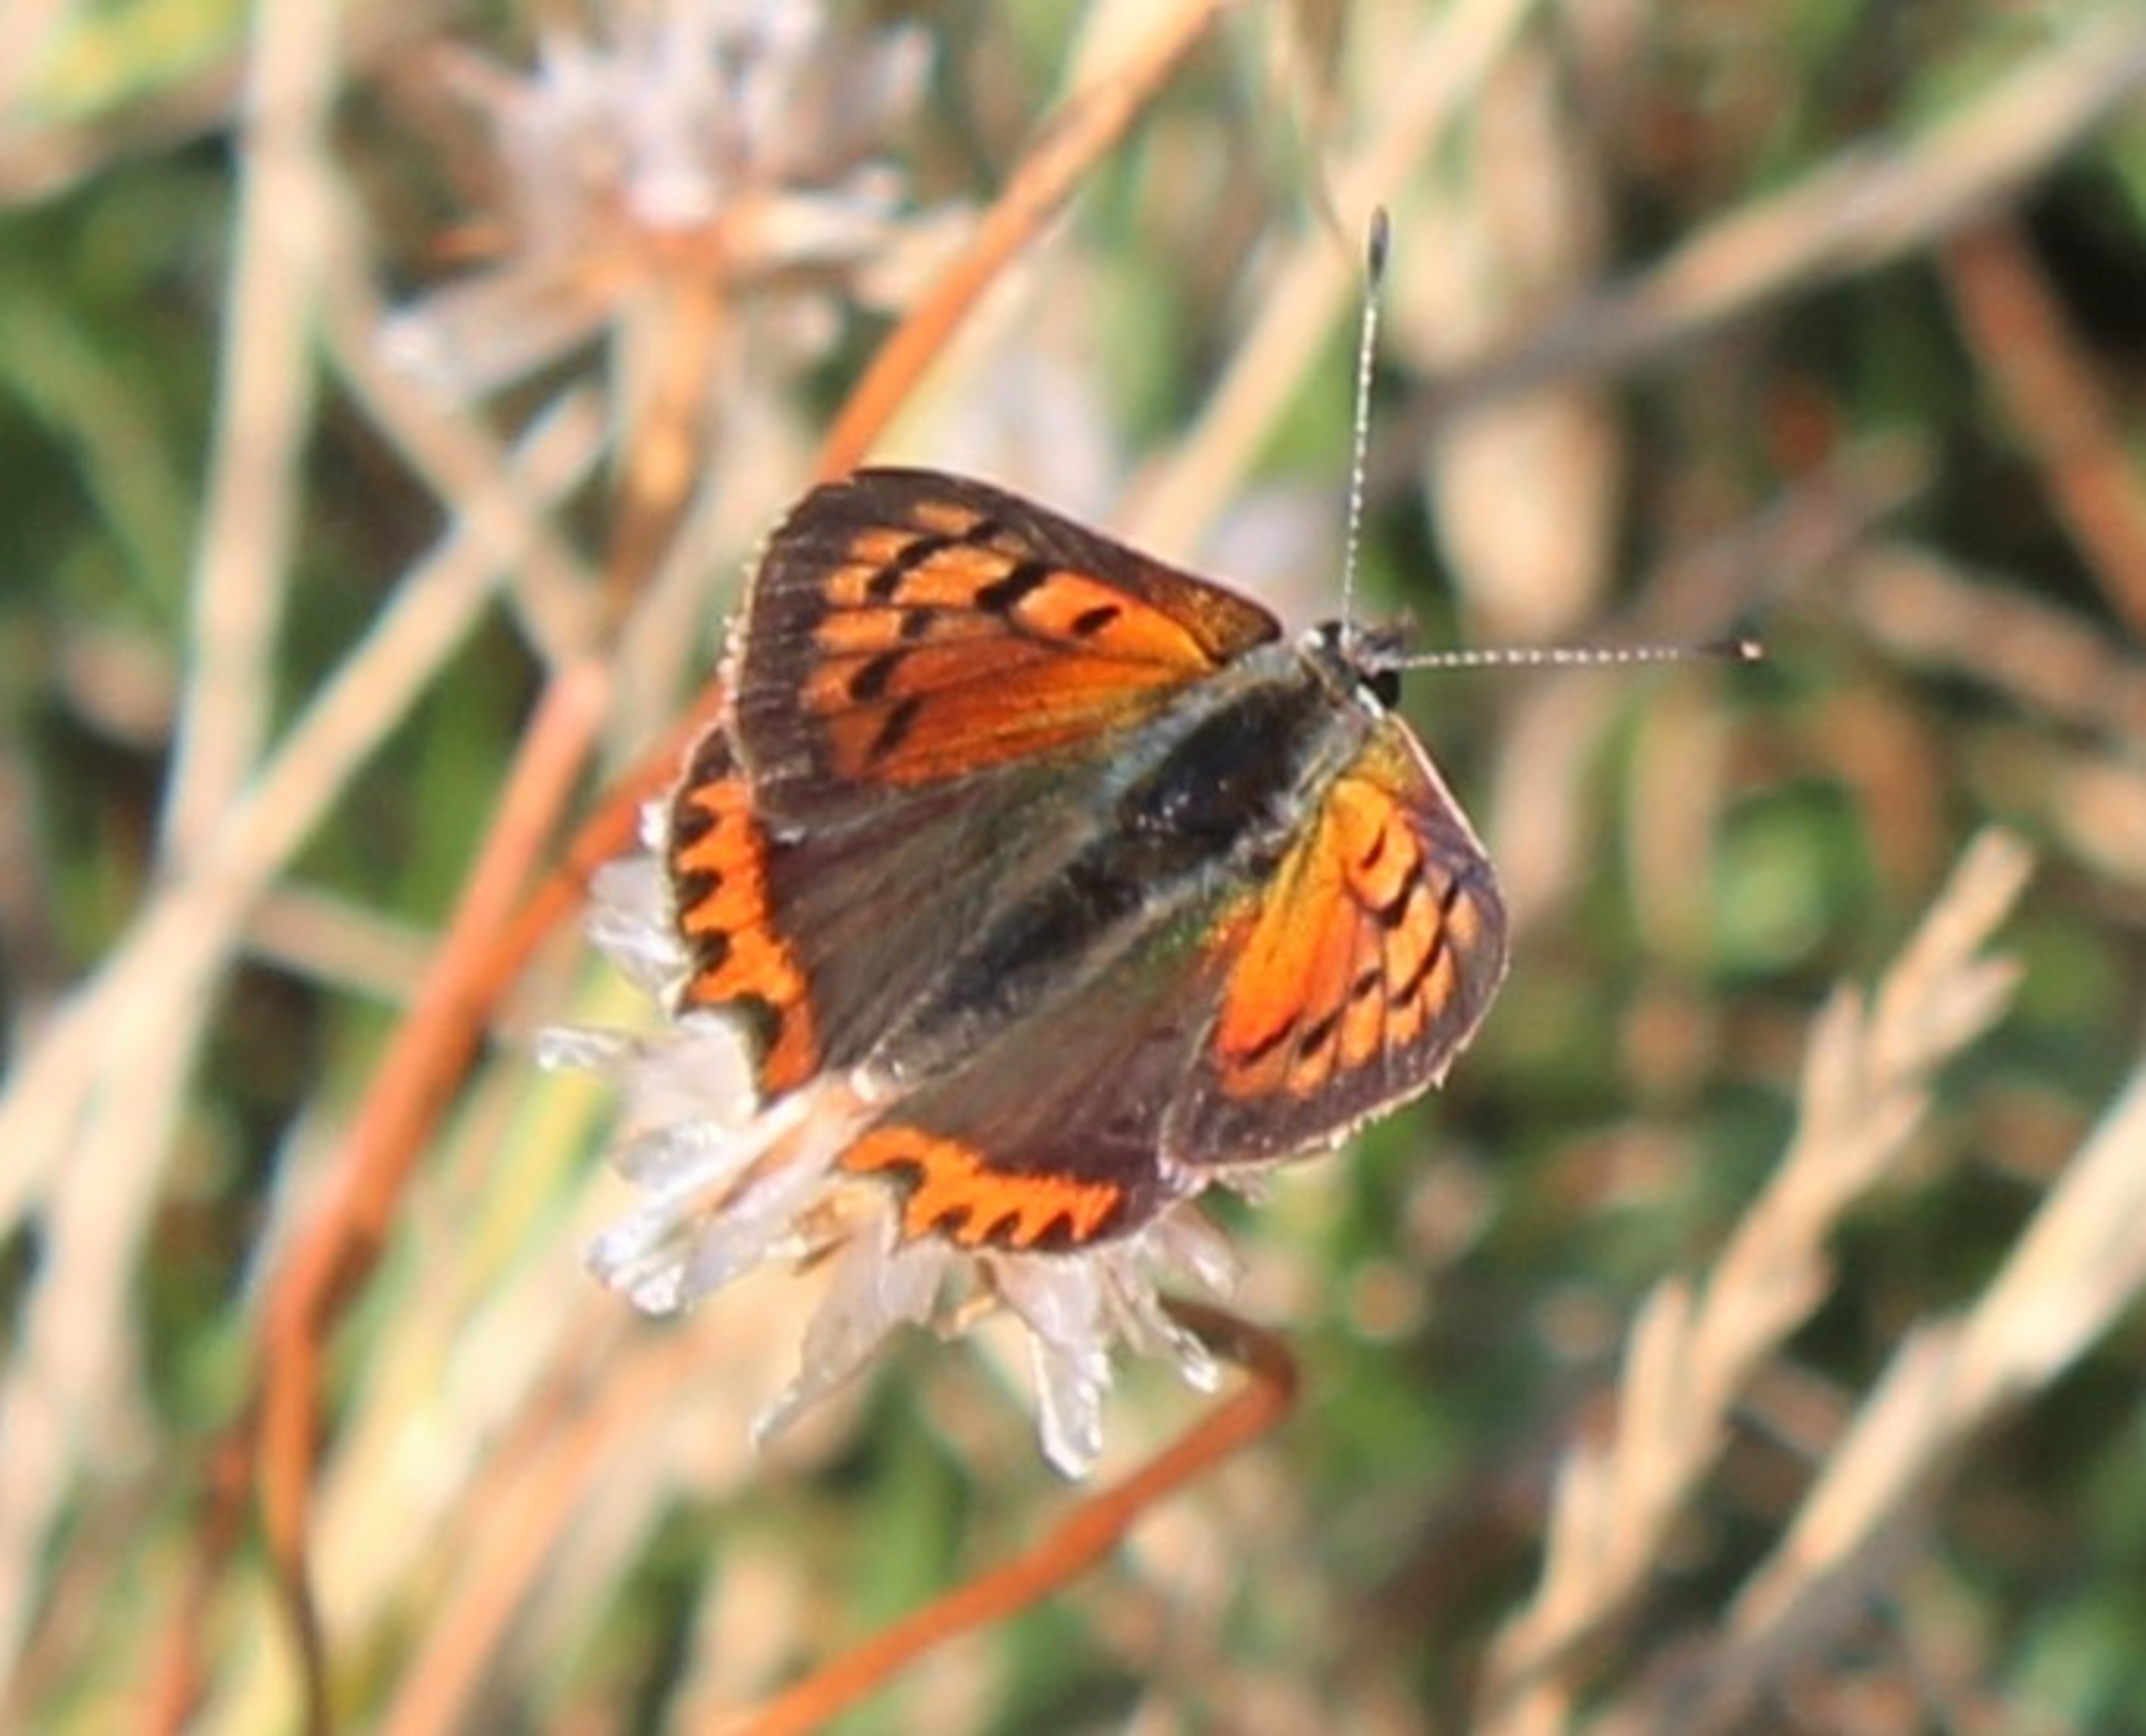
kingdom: Animalia
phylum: Arthropoda
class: Insecta
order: Lepidoptera
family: Lycaenidae
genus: Lycaena
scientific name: Lycaena phlaeas
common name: Lille ildfugl
